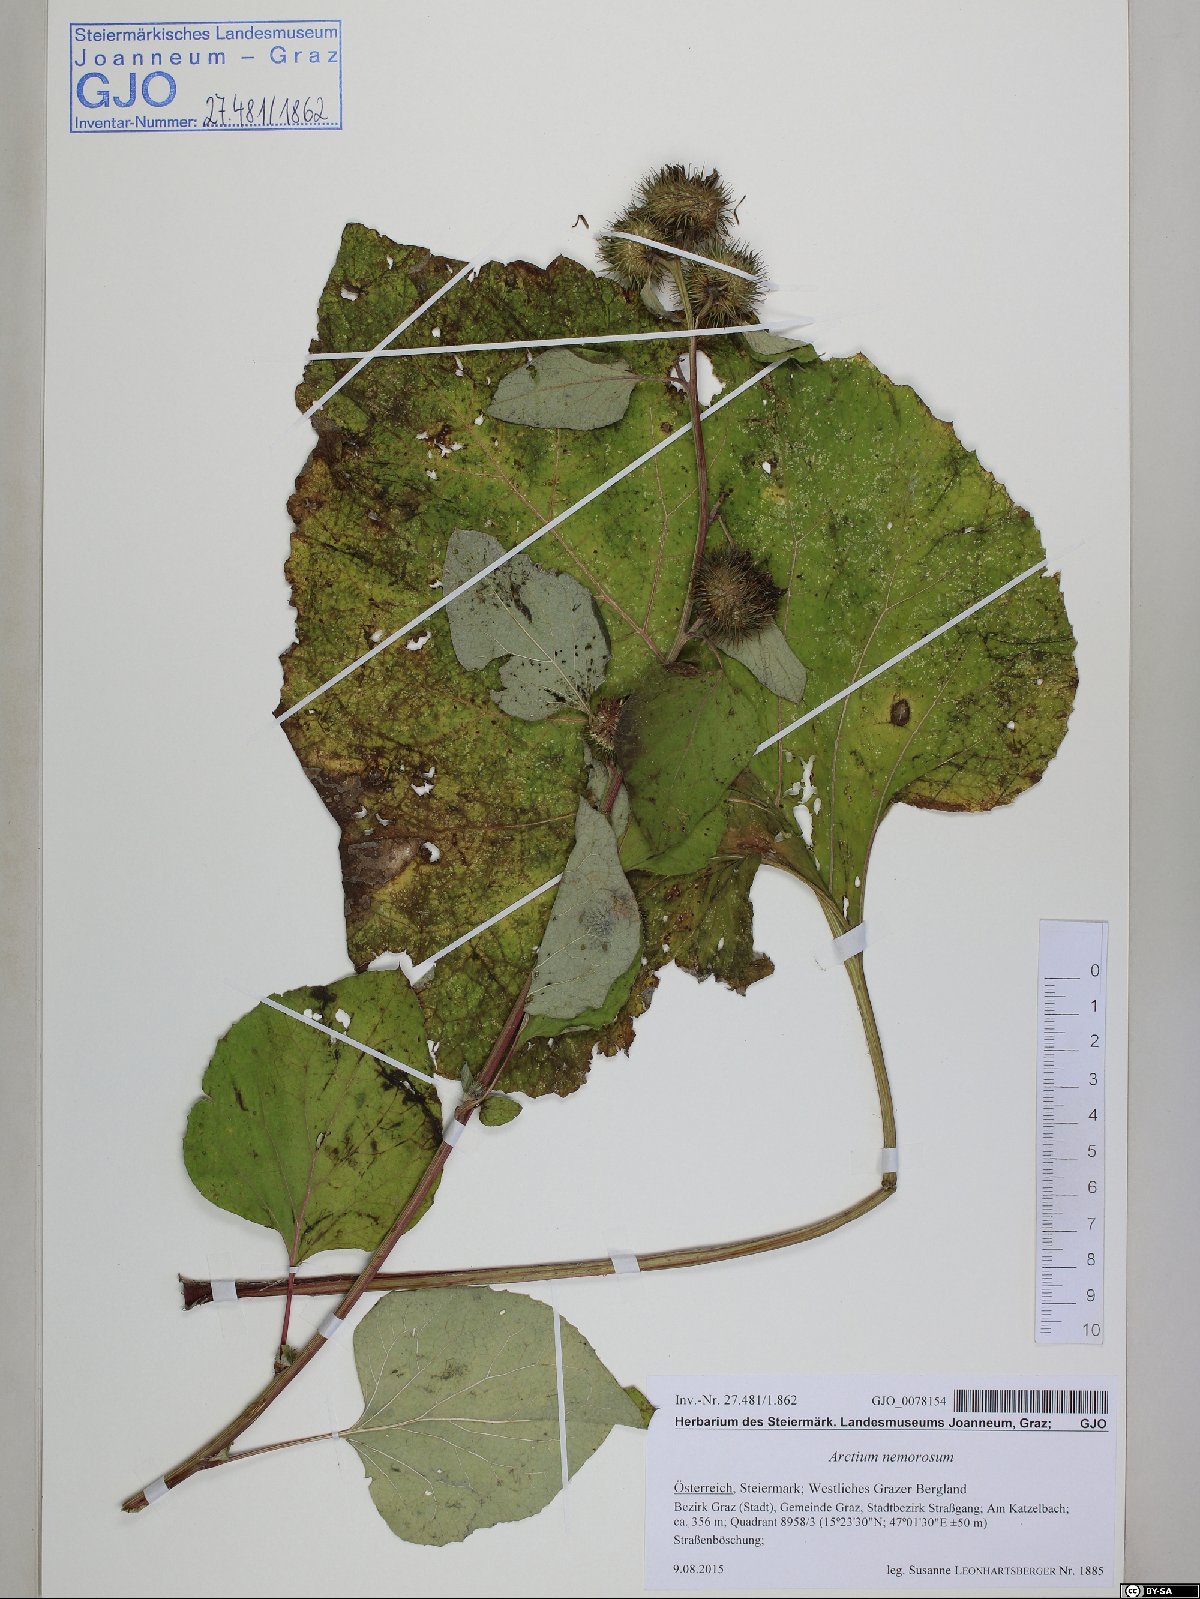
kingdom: Plantae
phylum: Tracheophyta
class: Magnoliopsida
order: Asterales
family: Asteraceae
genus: Arctium
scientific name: Arctium nemorosum
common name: Wood burdock
